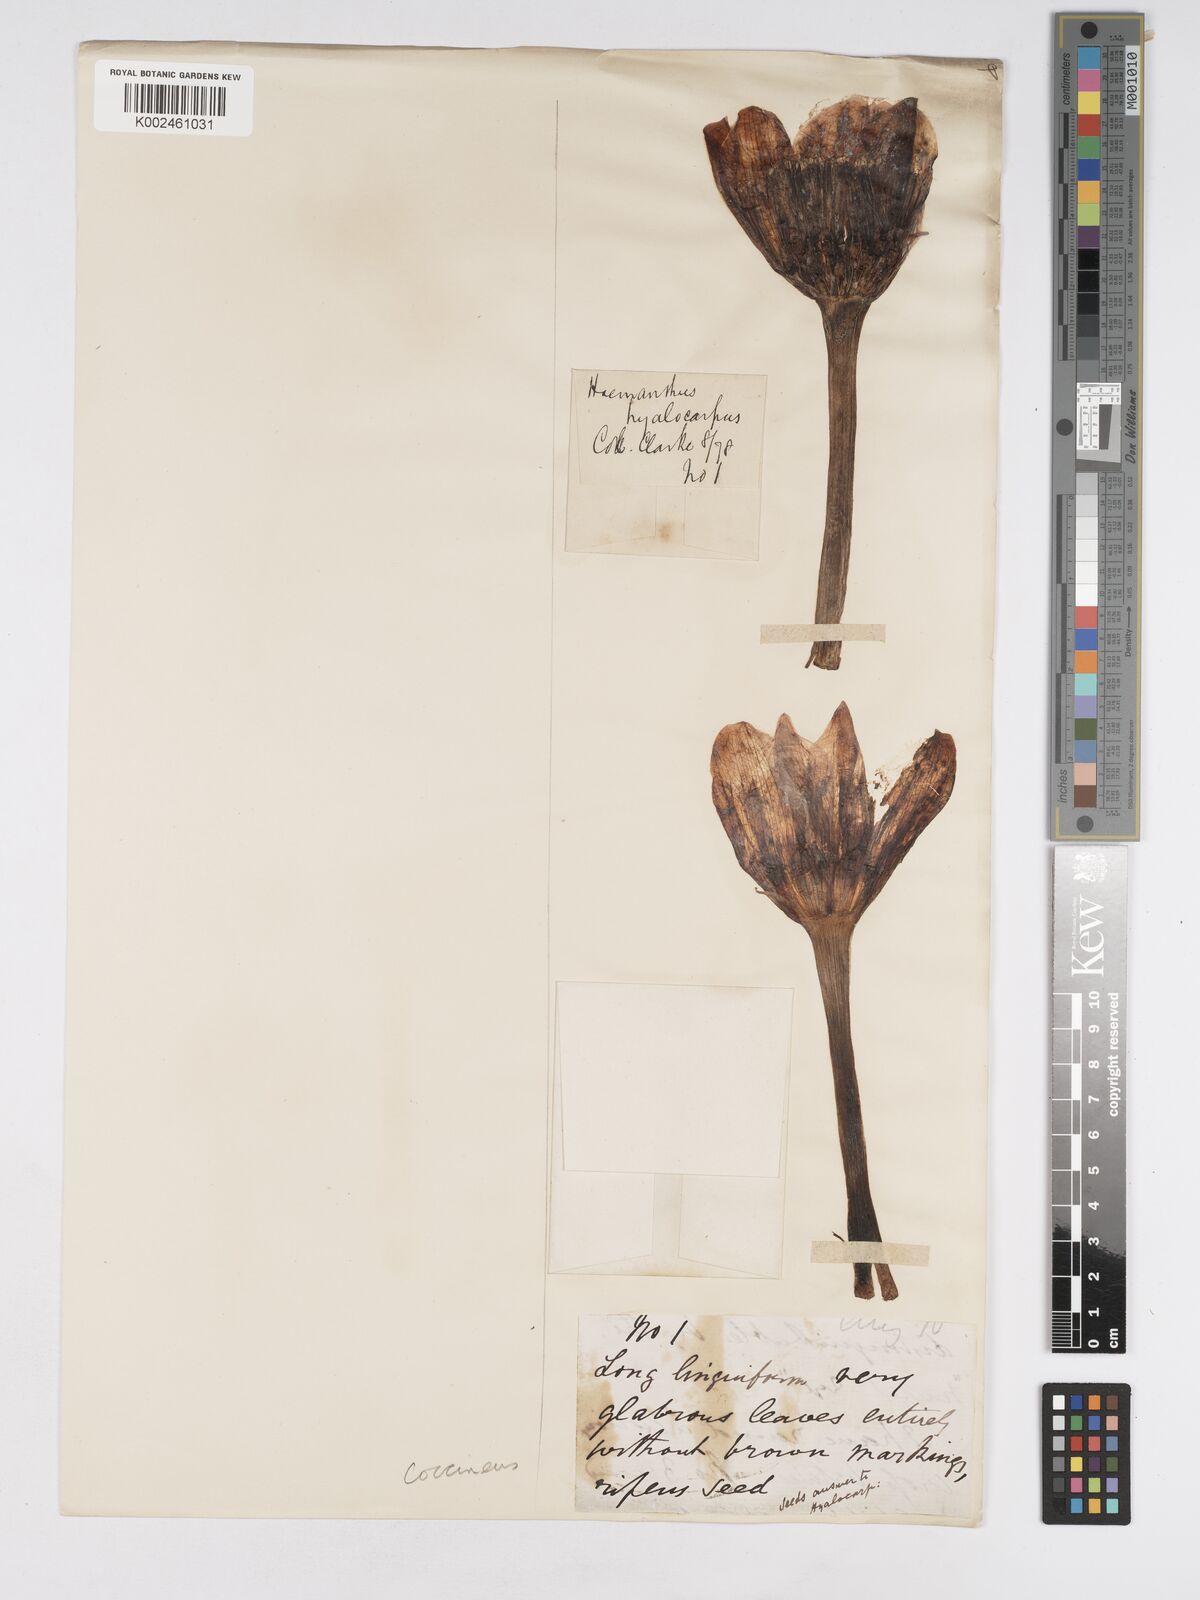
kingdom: Plantae
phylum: Tracheophyta
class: Liliopsida
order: Asparagales
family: Amaryllidaceae
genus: Haemanthus
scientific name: Haemanthus coccineus
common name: Cape-tulip
